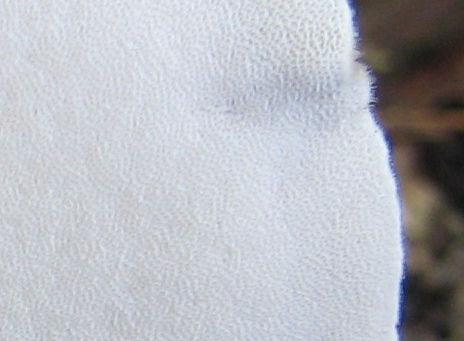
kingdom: Fungi
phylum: Basidiomycota
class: Agaricomycetes
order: Polyporales
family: Polyporaceae
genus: Lentinus
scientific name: Lentinus substrictus
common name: forårs-stilkporesvamp
